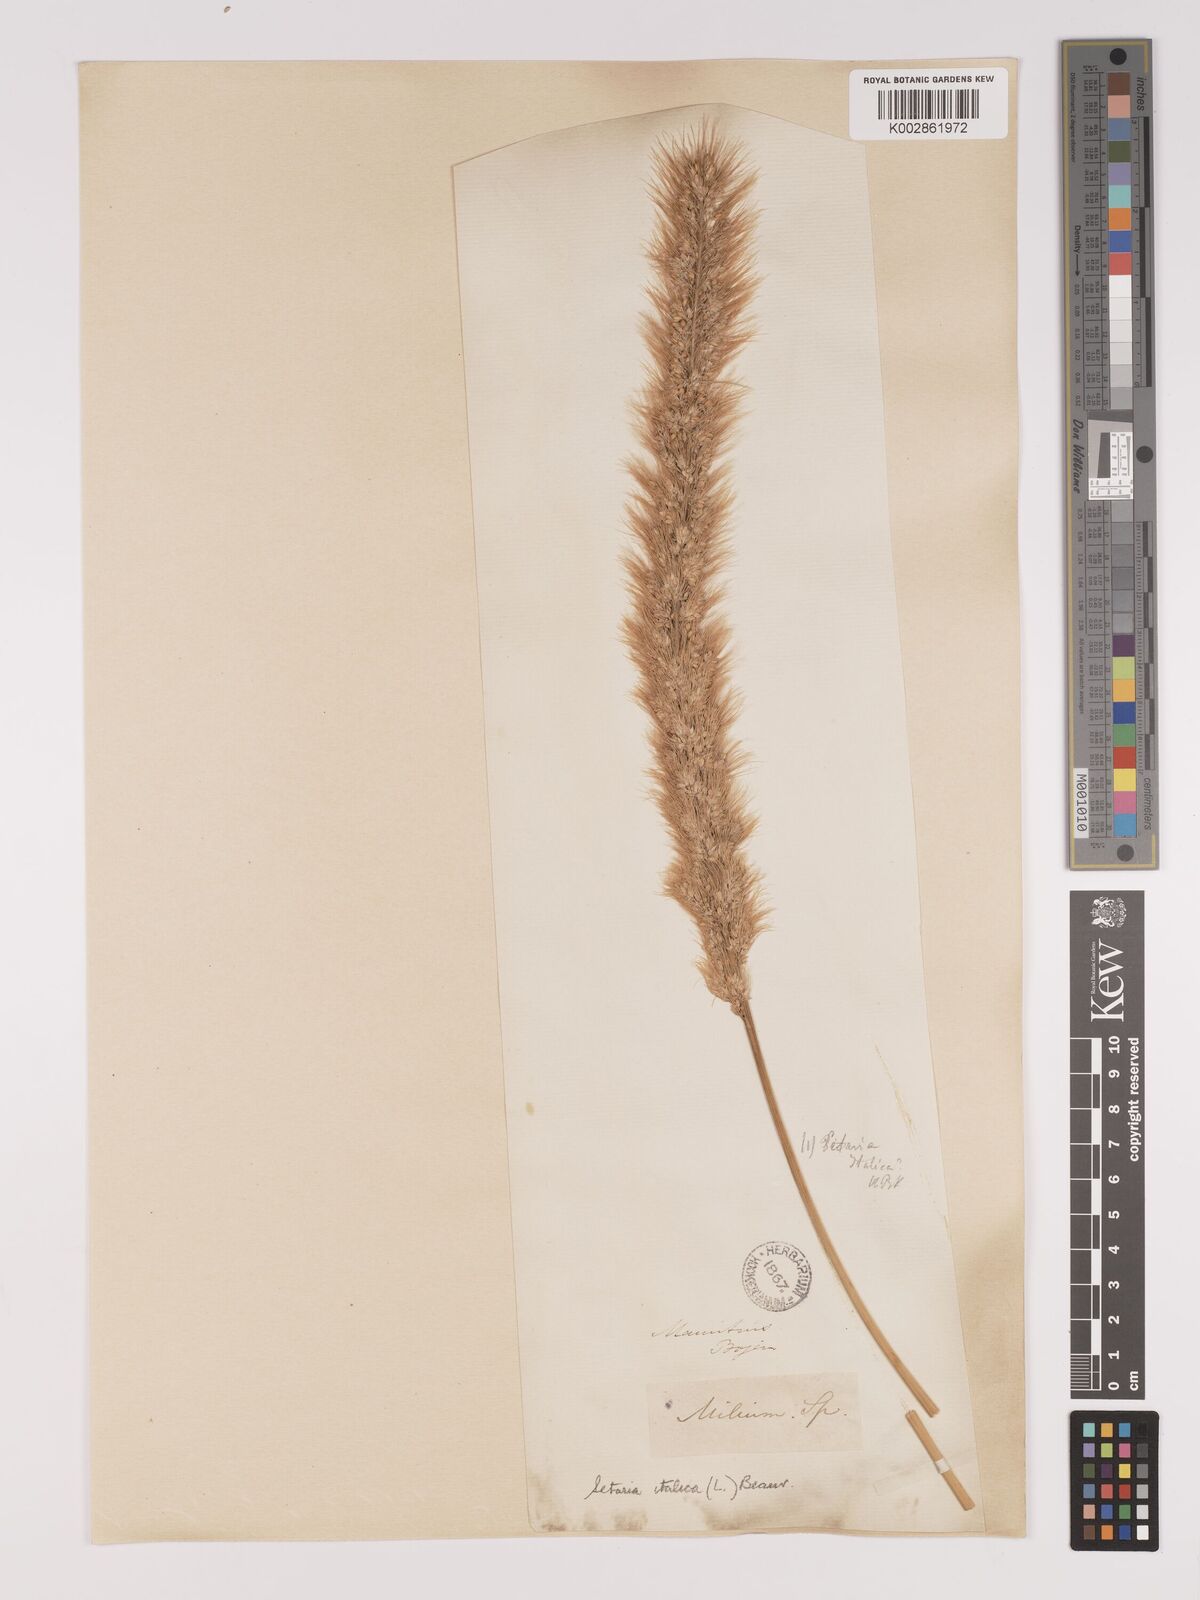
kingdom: Plantae
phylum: Tracheophyta
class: Liliopsida
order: Poales
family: Poaceae
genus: Setaria
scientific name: Setaria italica
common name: Foxtail bristle-grass
